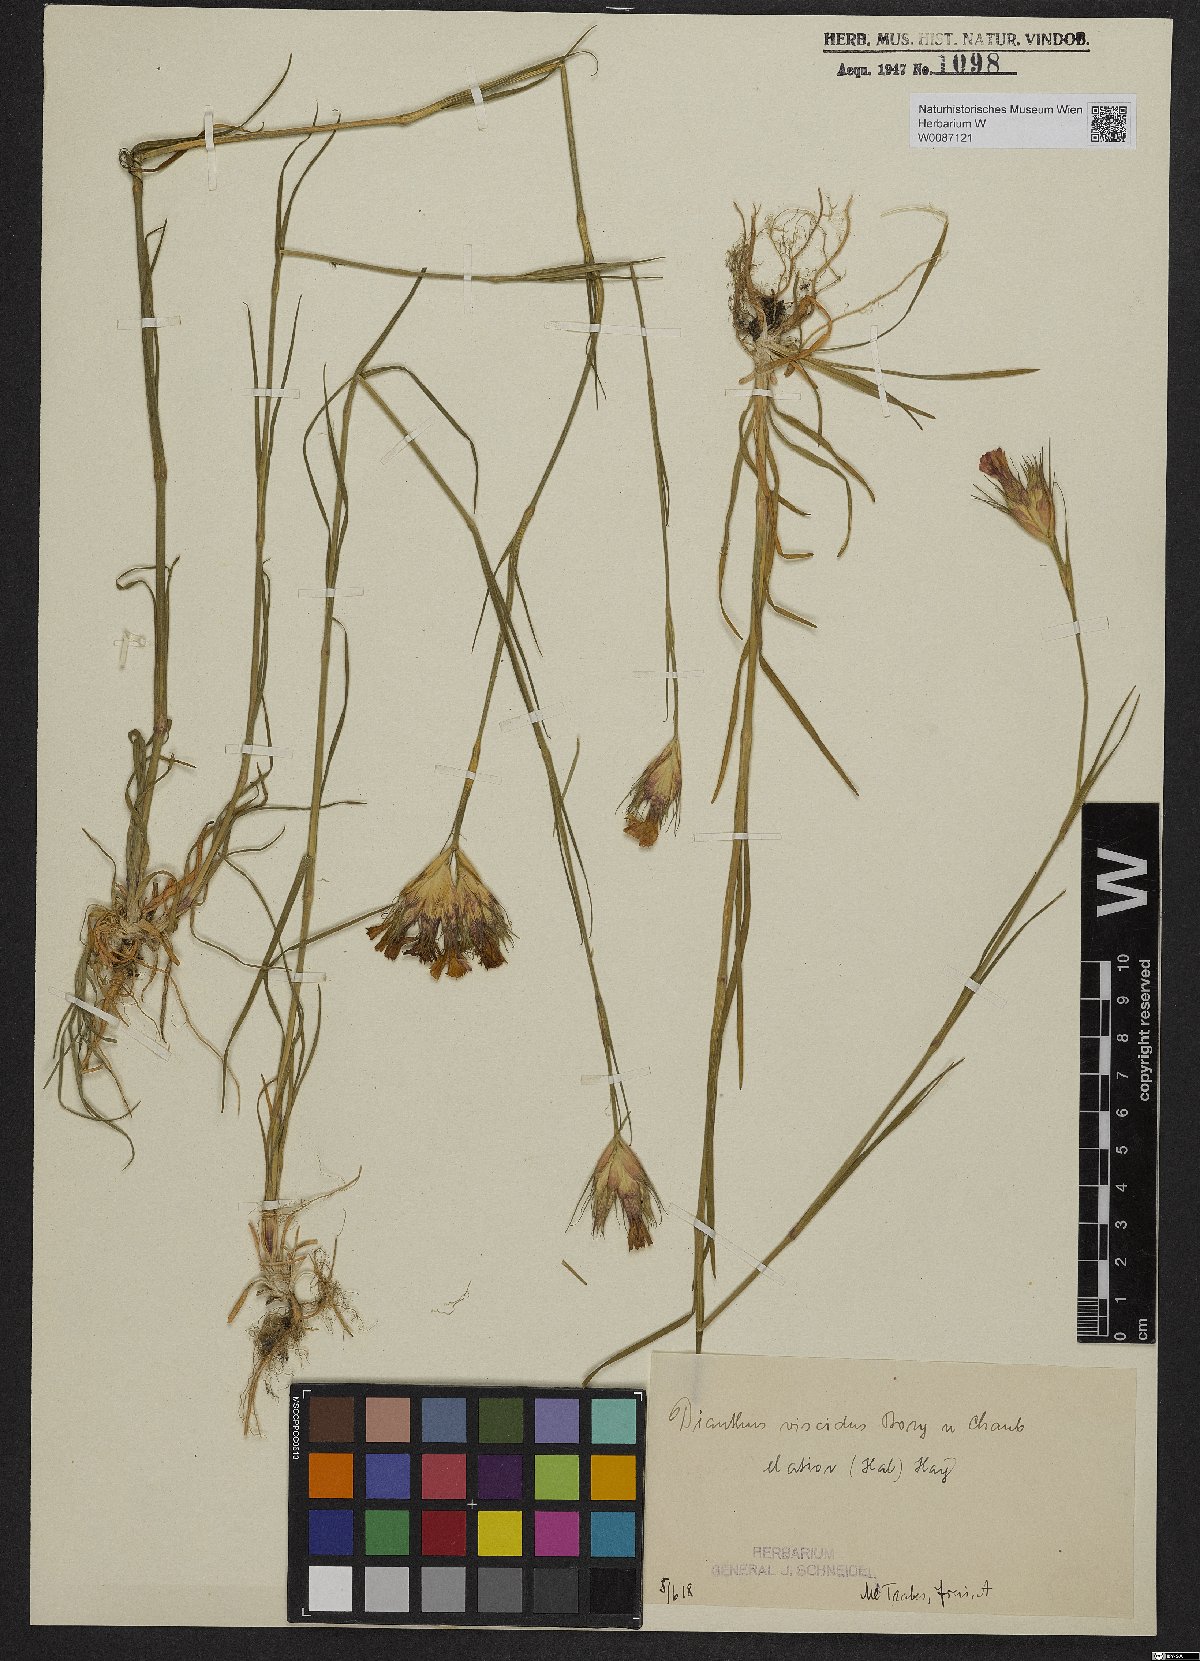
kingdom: Plantae
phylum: Tracheophyta
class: Magnoliopsida
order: Caryophyllales
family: Caryophyllaceae
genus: Dianthus
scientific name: Dianthus viscidus
